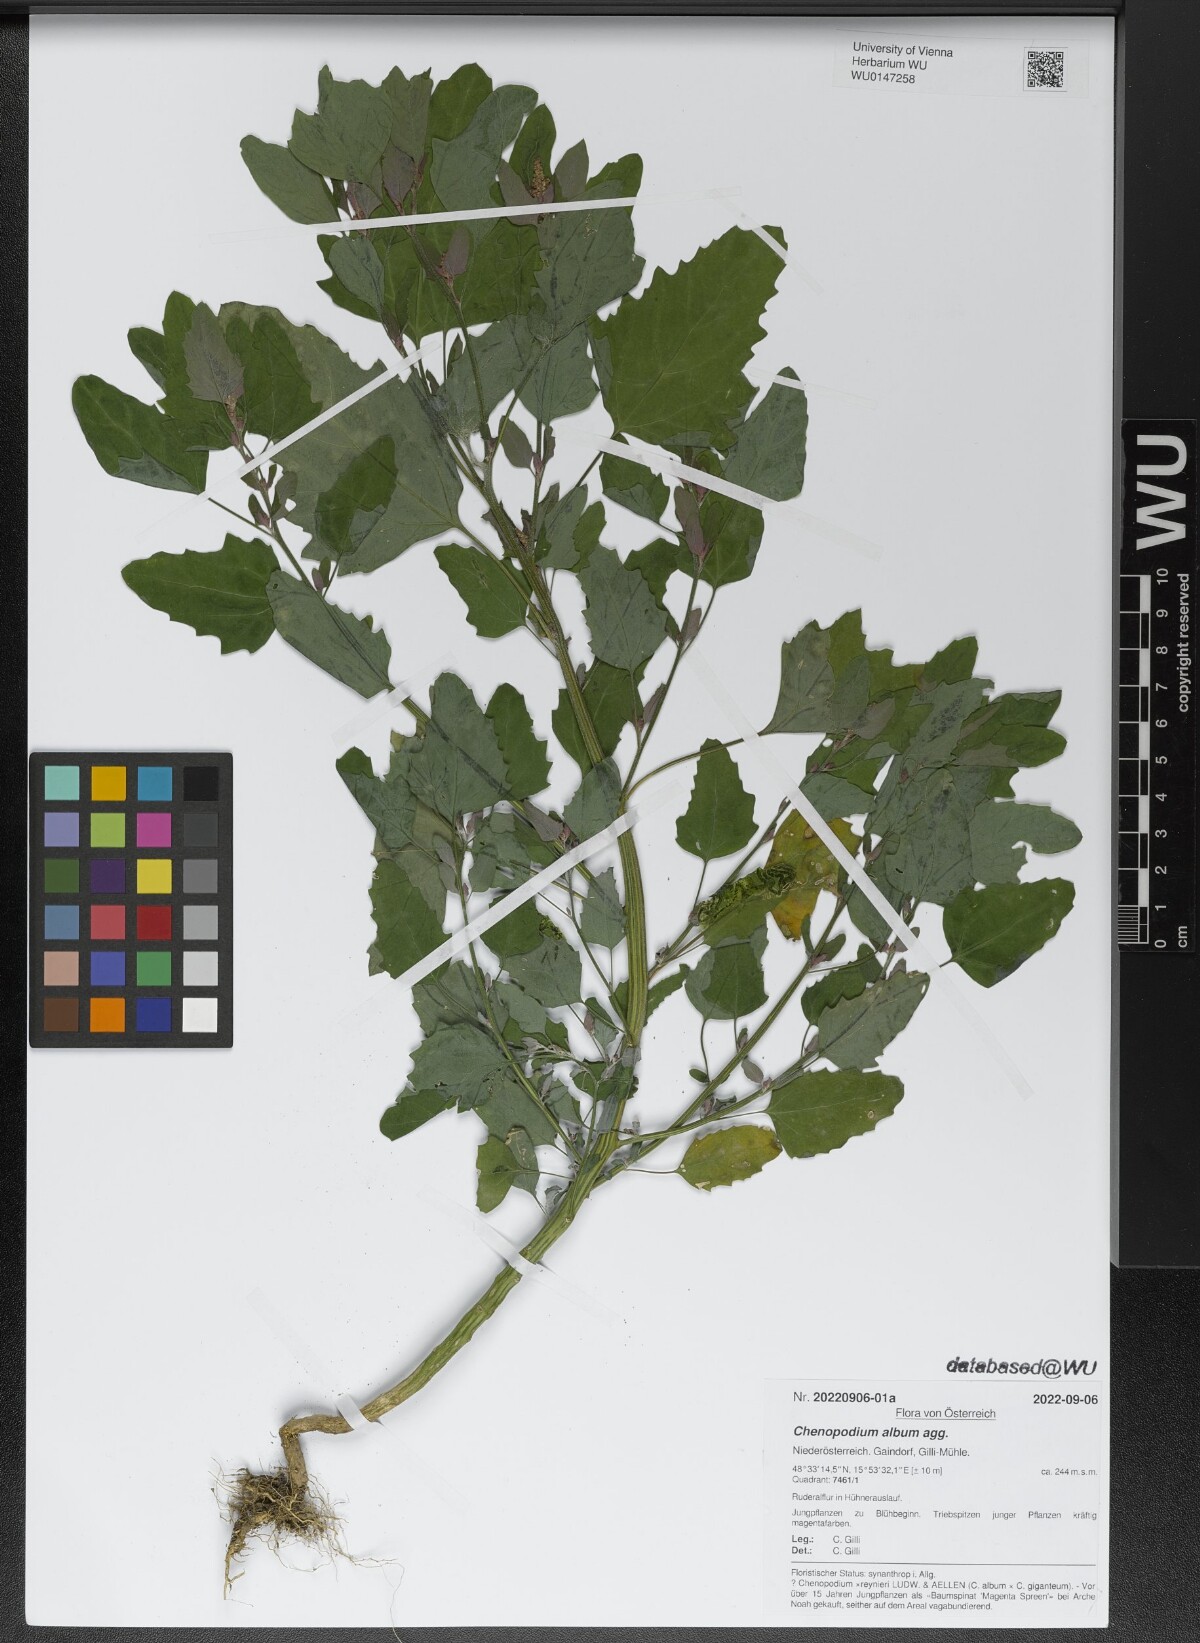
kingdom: Plantae
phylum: Tracheophyta
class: Magnoliopsida
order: Caryophyllales
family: Amaranthaceae
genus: Chenopodium
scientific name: Chenopodium album
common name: Fat-hen
